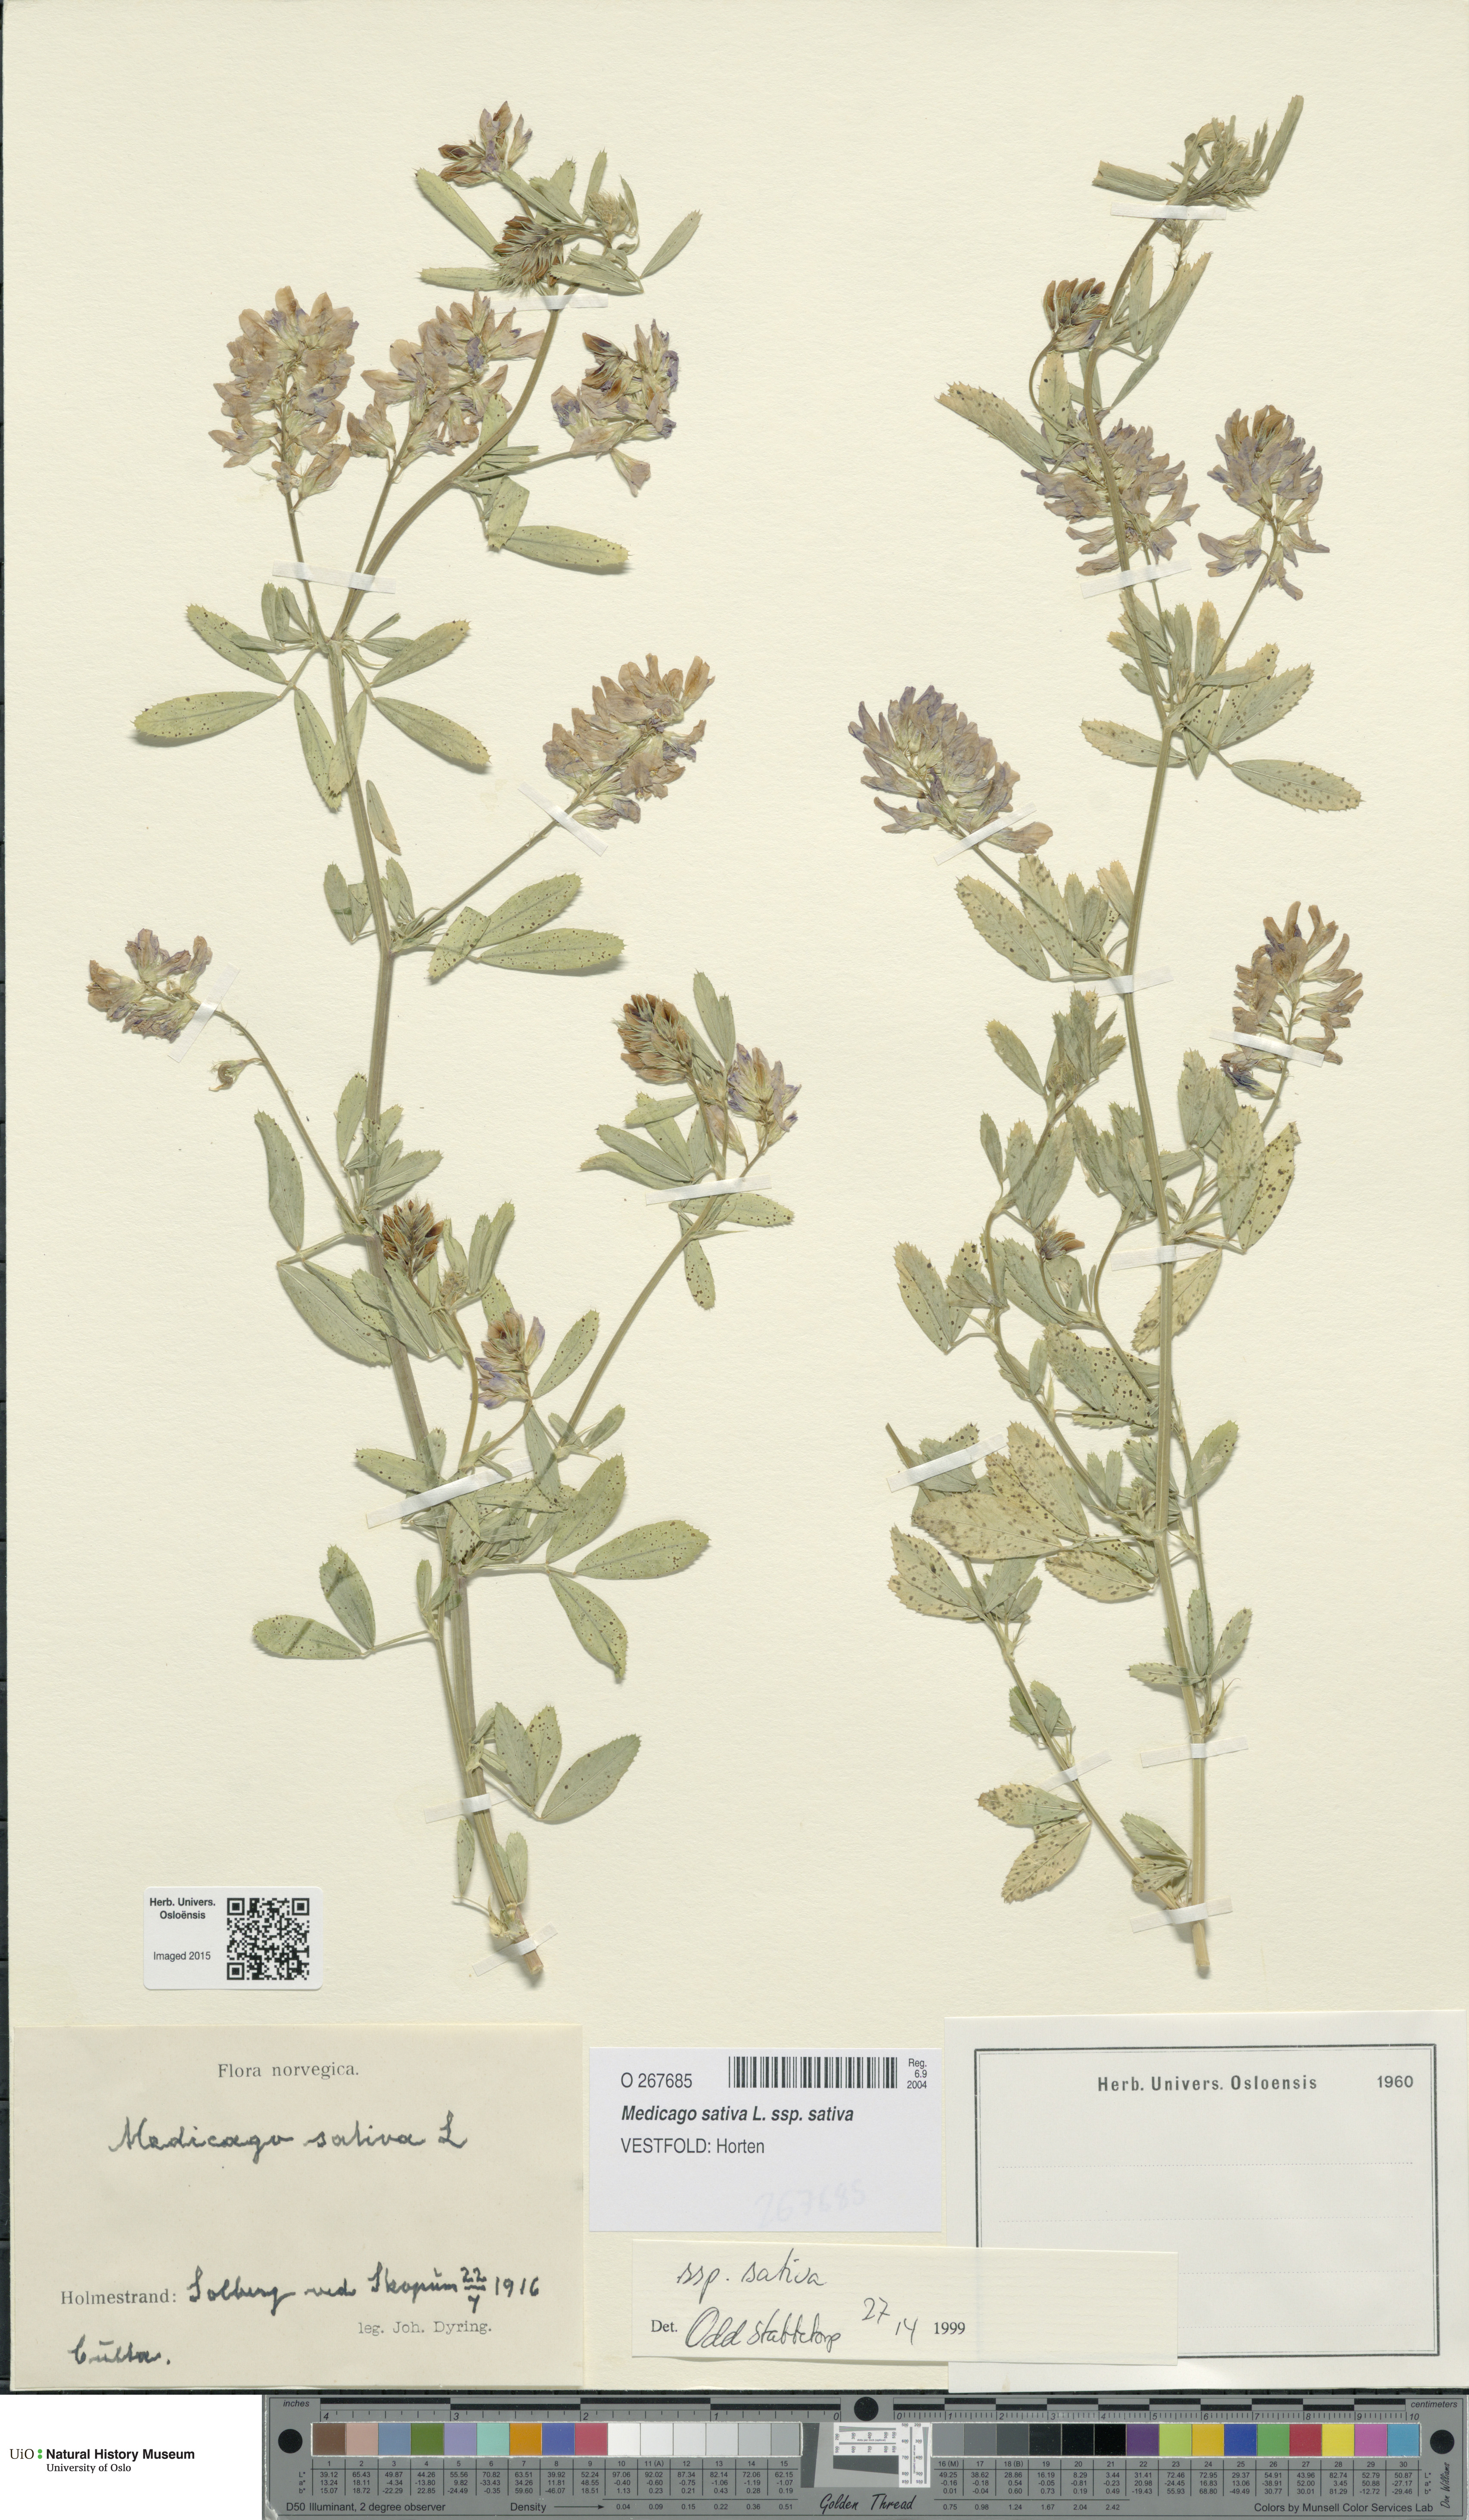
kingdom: Plantae
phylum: Tracheophyta
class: Magnoliopsida
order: Fabales
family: Fabaceae
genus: Medicago
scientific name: Medicago sativa
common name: Alfalfa
